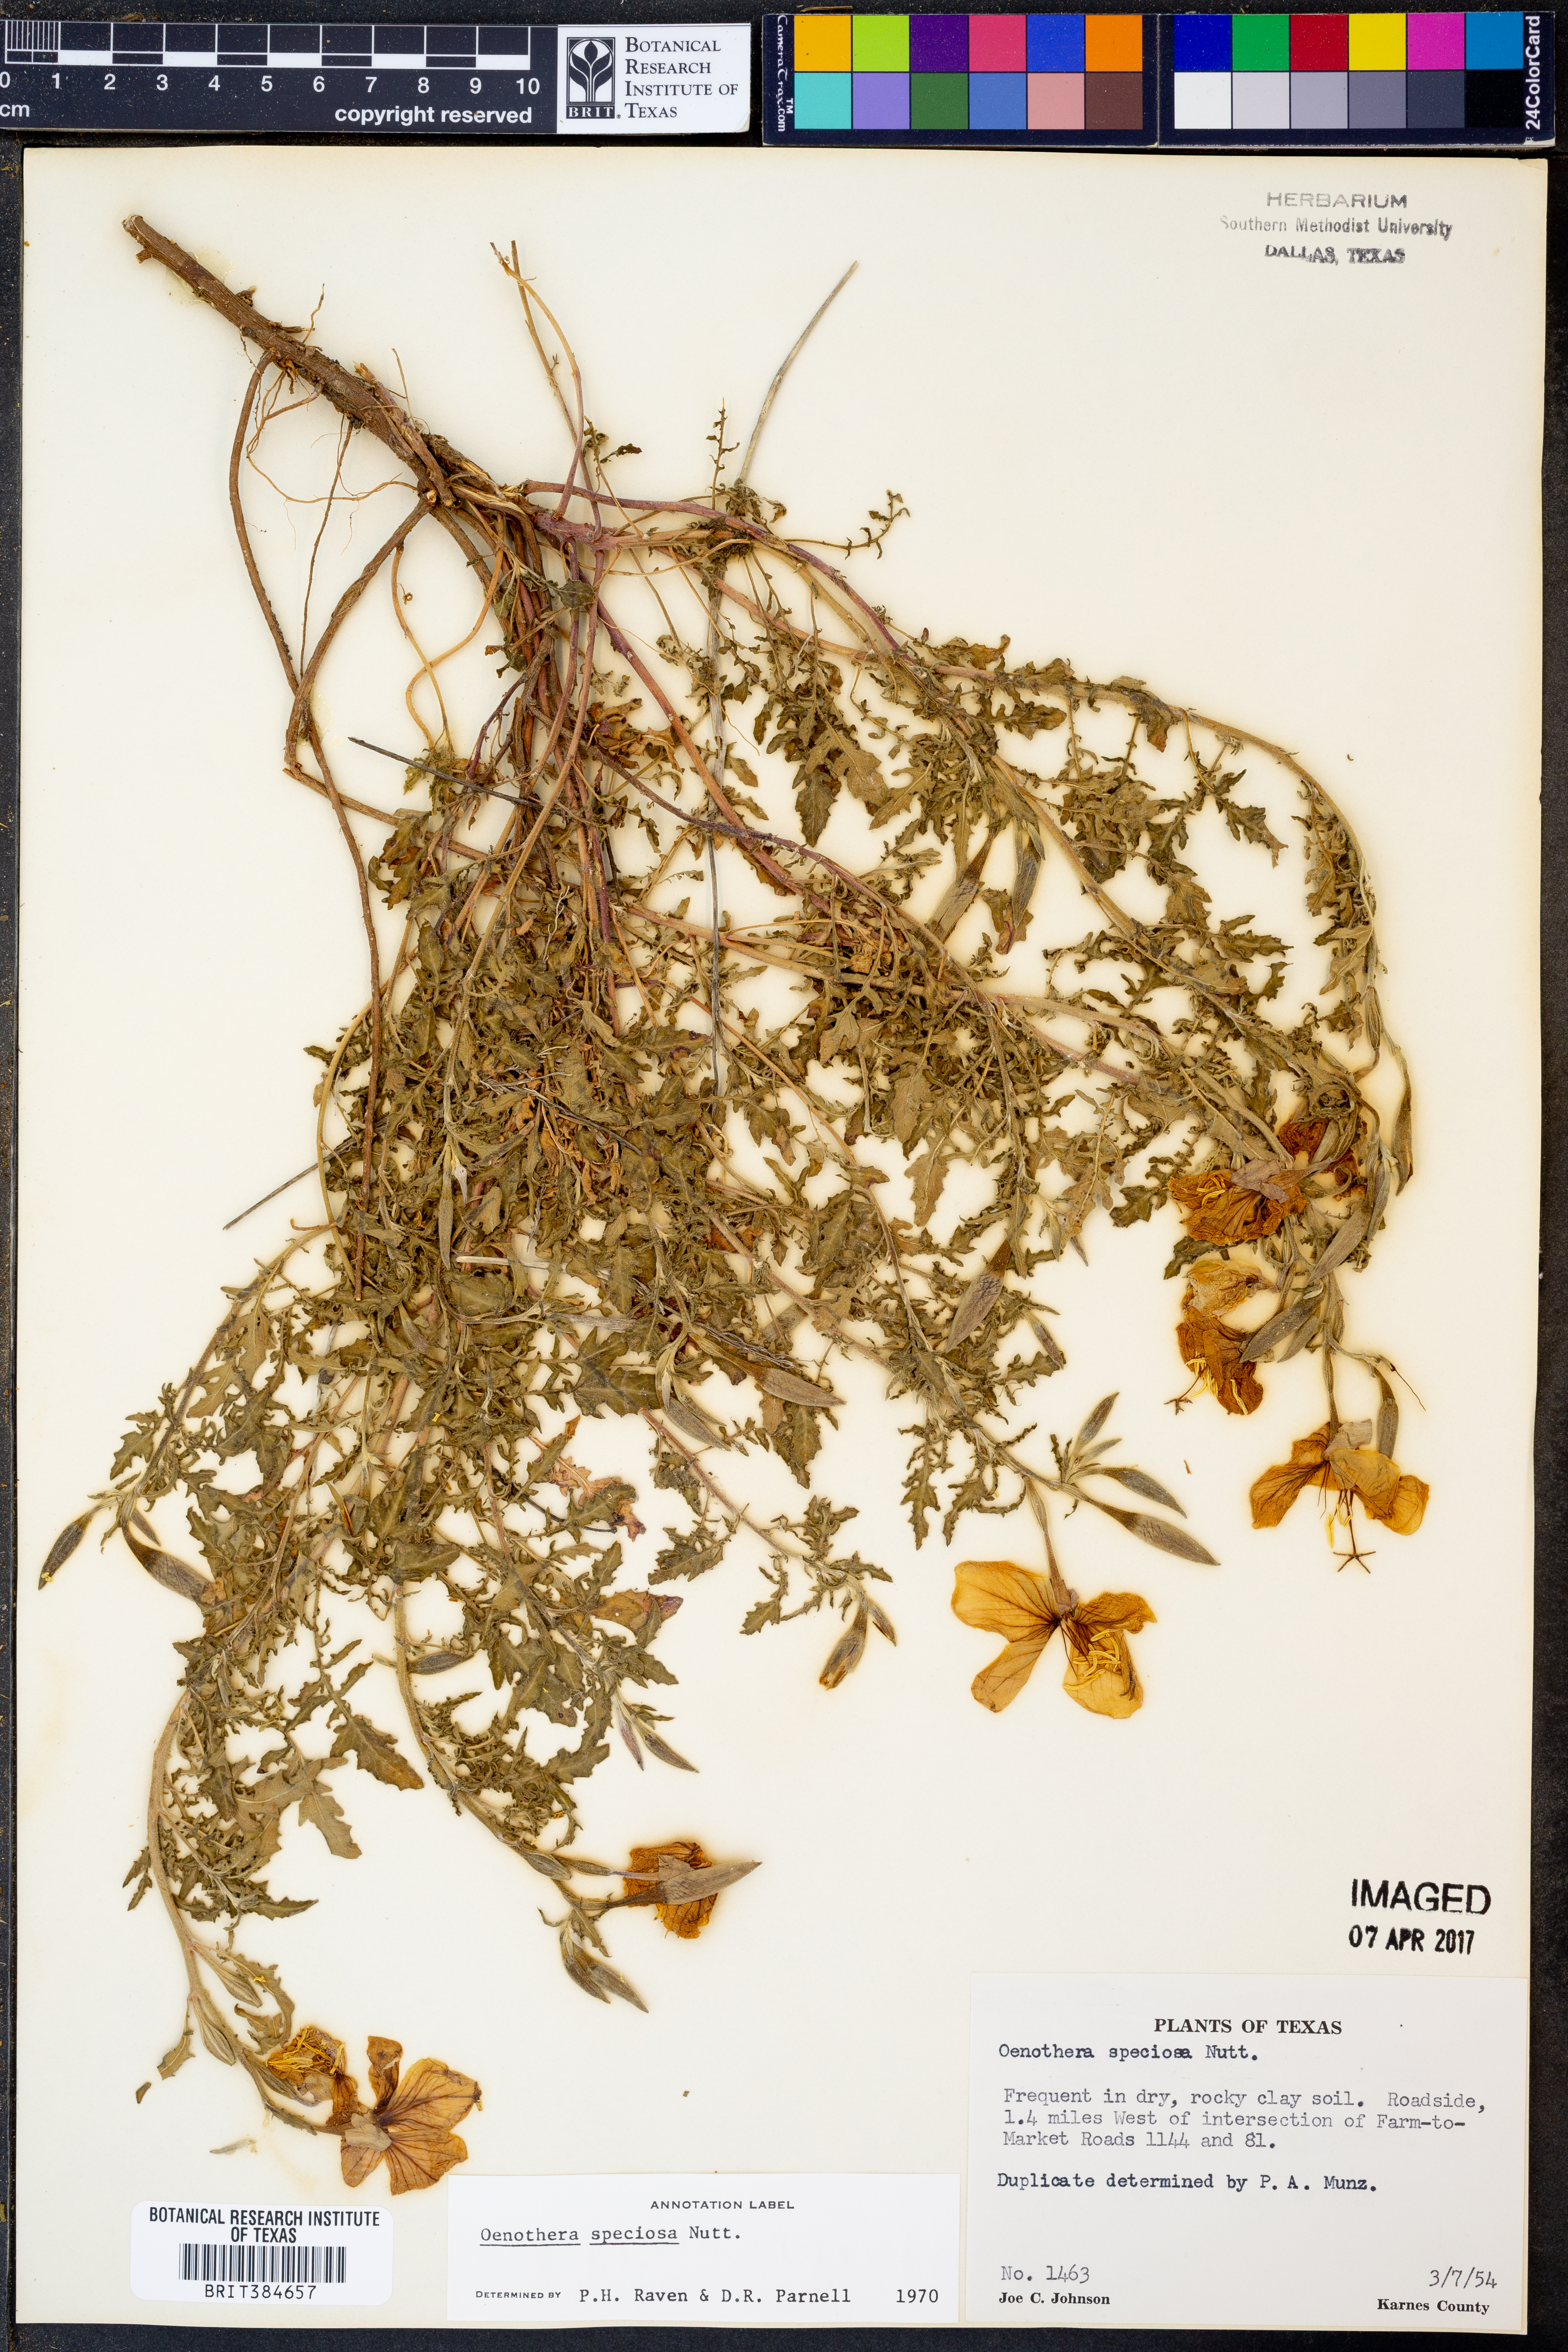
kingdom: Plantae
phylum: Tracheophyta
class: Magnoliopsida
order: Myrtales
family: Onagraceae
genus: Oenothera
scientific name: Oenothera speciosa
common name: White evening-primrose
